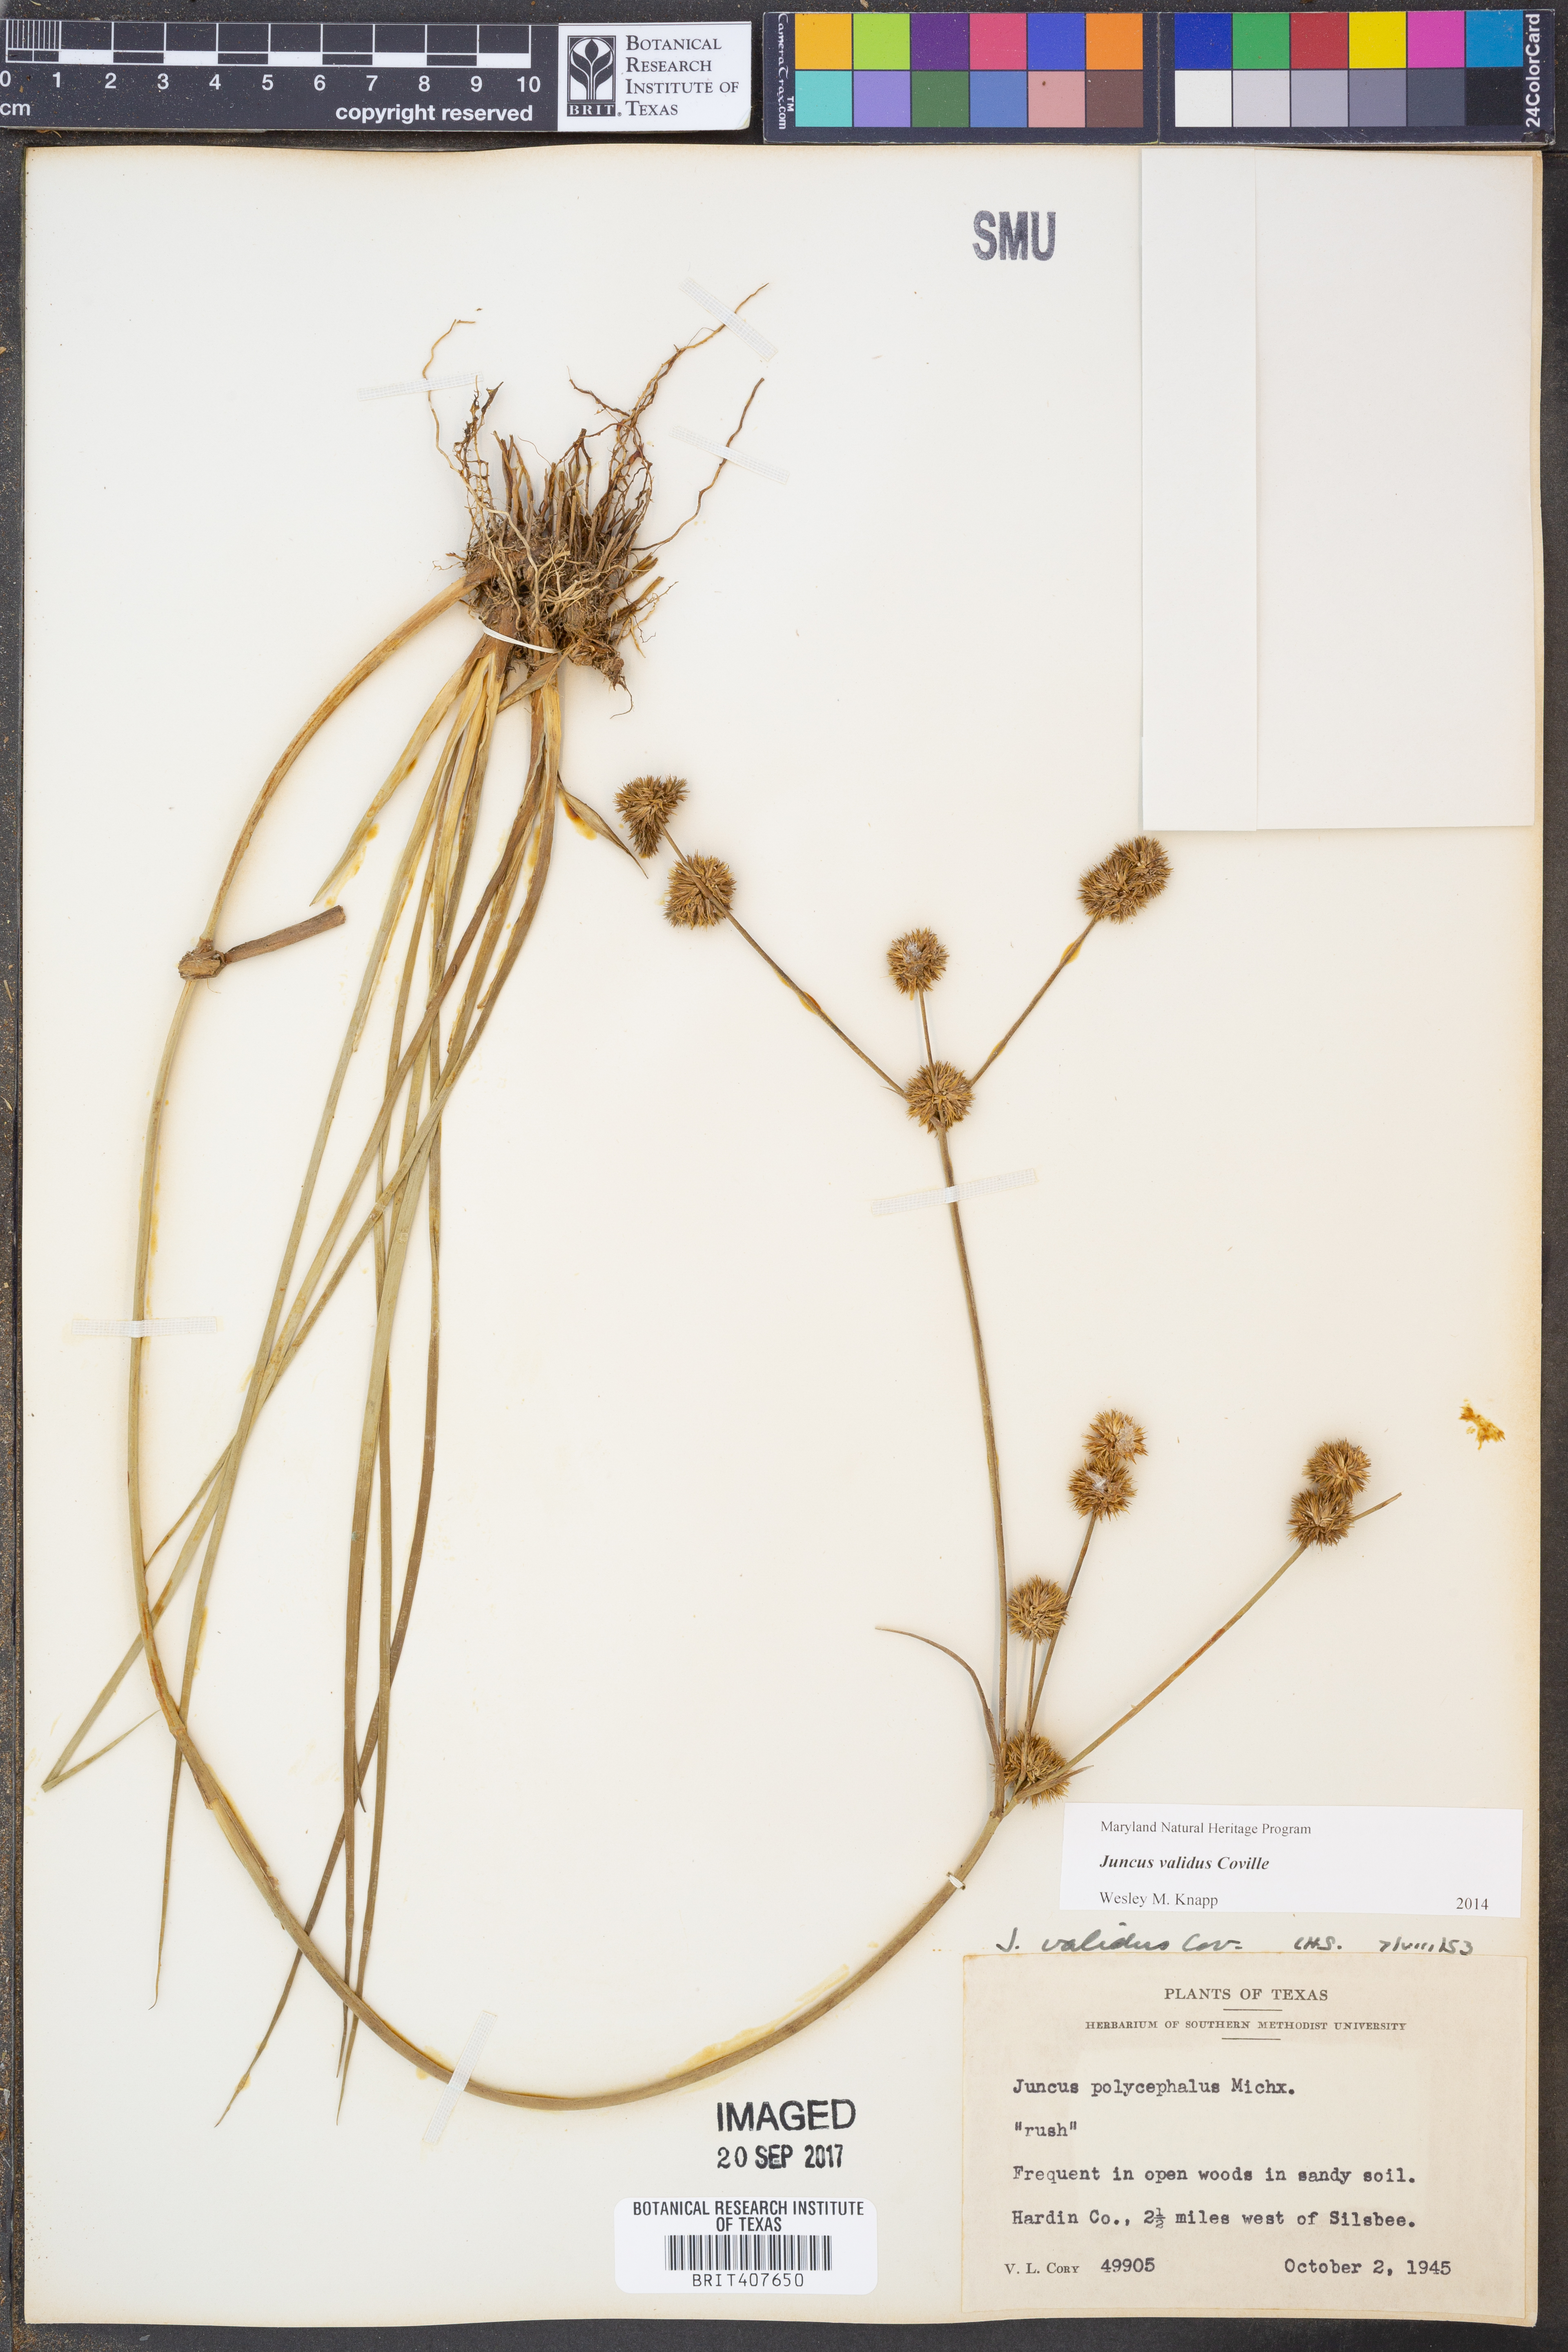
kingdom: Plantae
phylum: Tracheophyta
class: Liliopsida
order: Poales
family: Juncaceae
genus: Juncus
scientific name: Juncus validus
